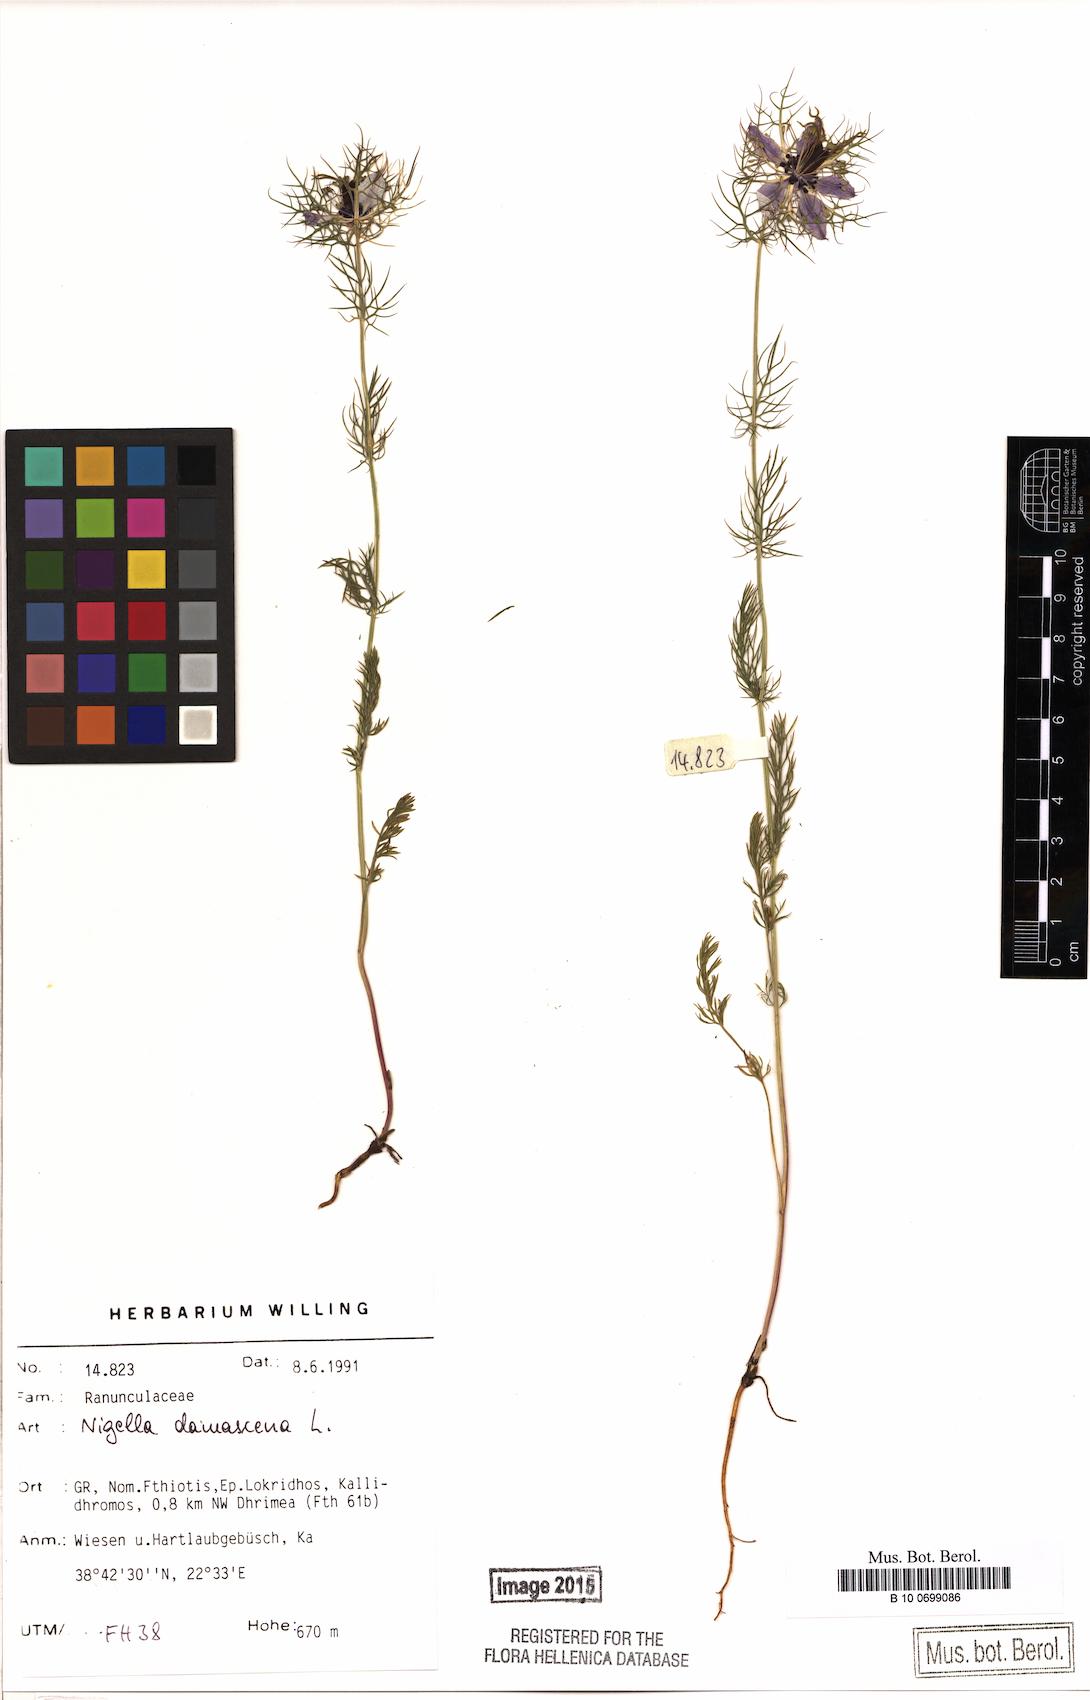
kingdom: Plantae
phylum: Tracheophyta
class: Magnoliopsida
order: Ranunculales
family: Ranunculaceae
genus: Nigella
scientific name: Nigella damascena
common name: Love-in-a-mist
